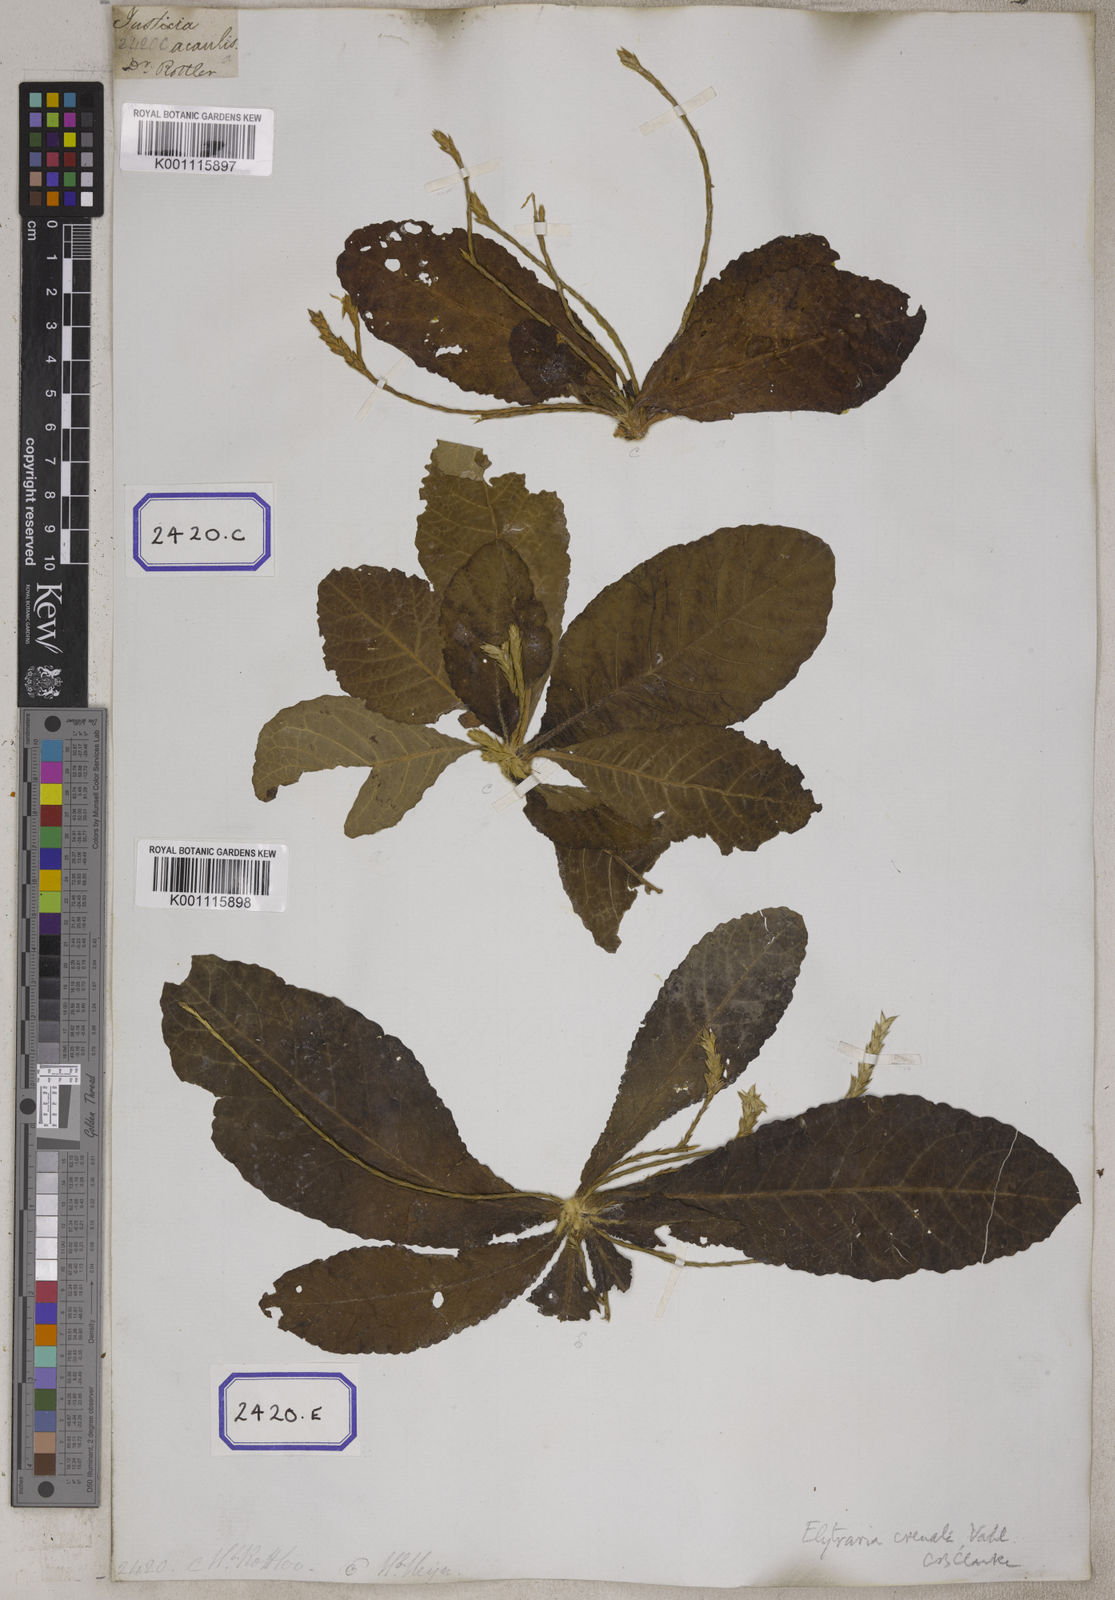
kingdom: Plantae
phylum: Tracheophyta
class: Magnoliopsida
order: Lamiales
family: Acanthaceae
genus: Elytraria
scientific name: Elytraria acaulis
